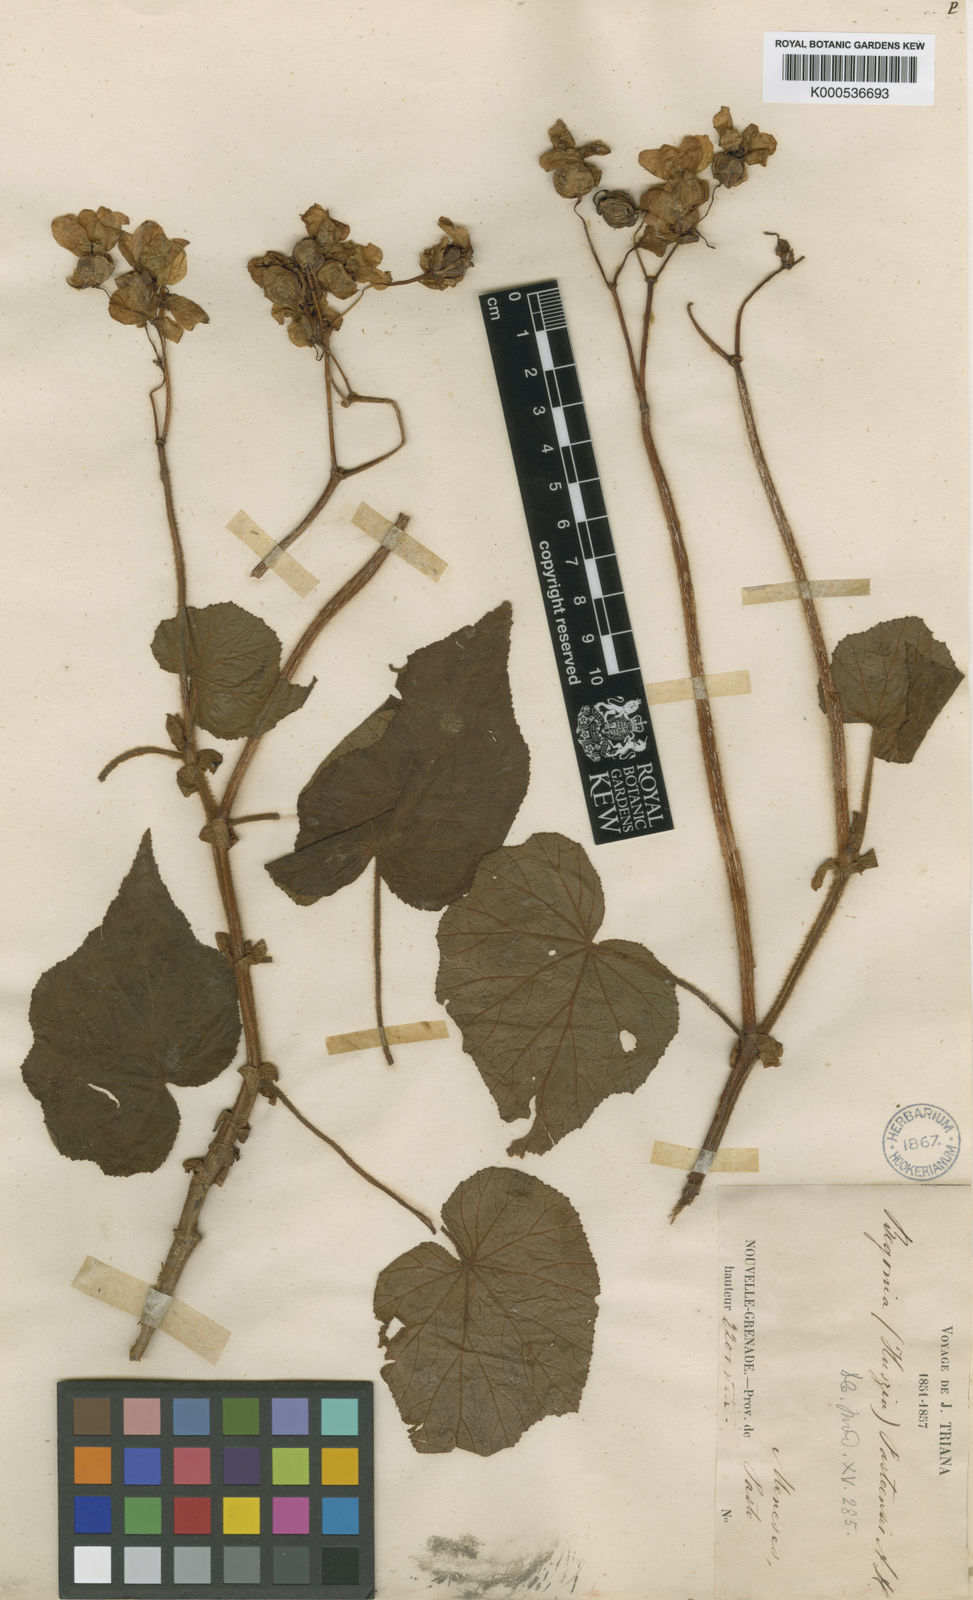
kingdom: Plantae
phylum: Tracheophyta
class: Magnoliopsida
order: Cucurbitales
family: Begoniaceae
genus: Begonia
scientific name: Begonia pastoensis
